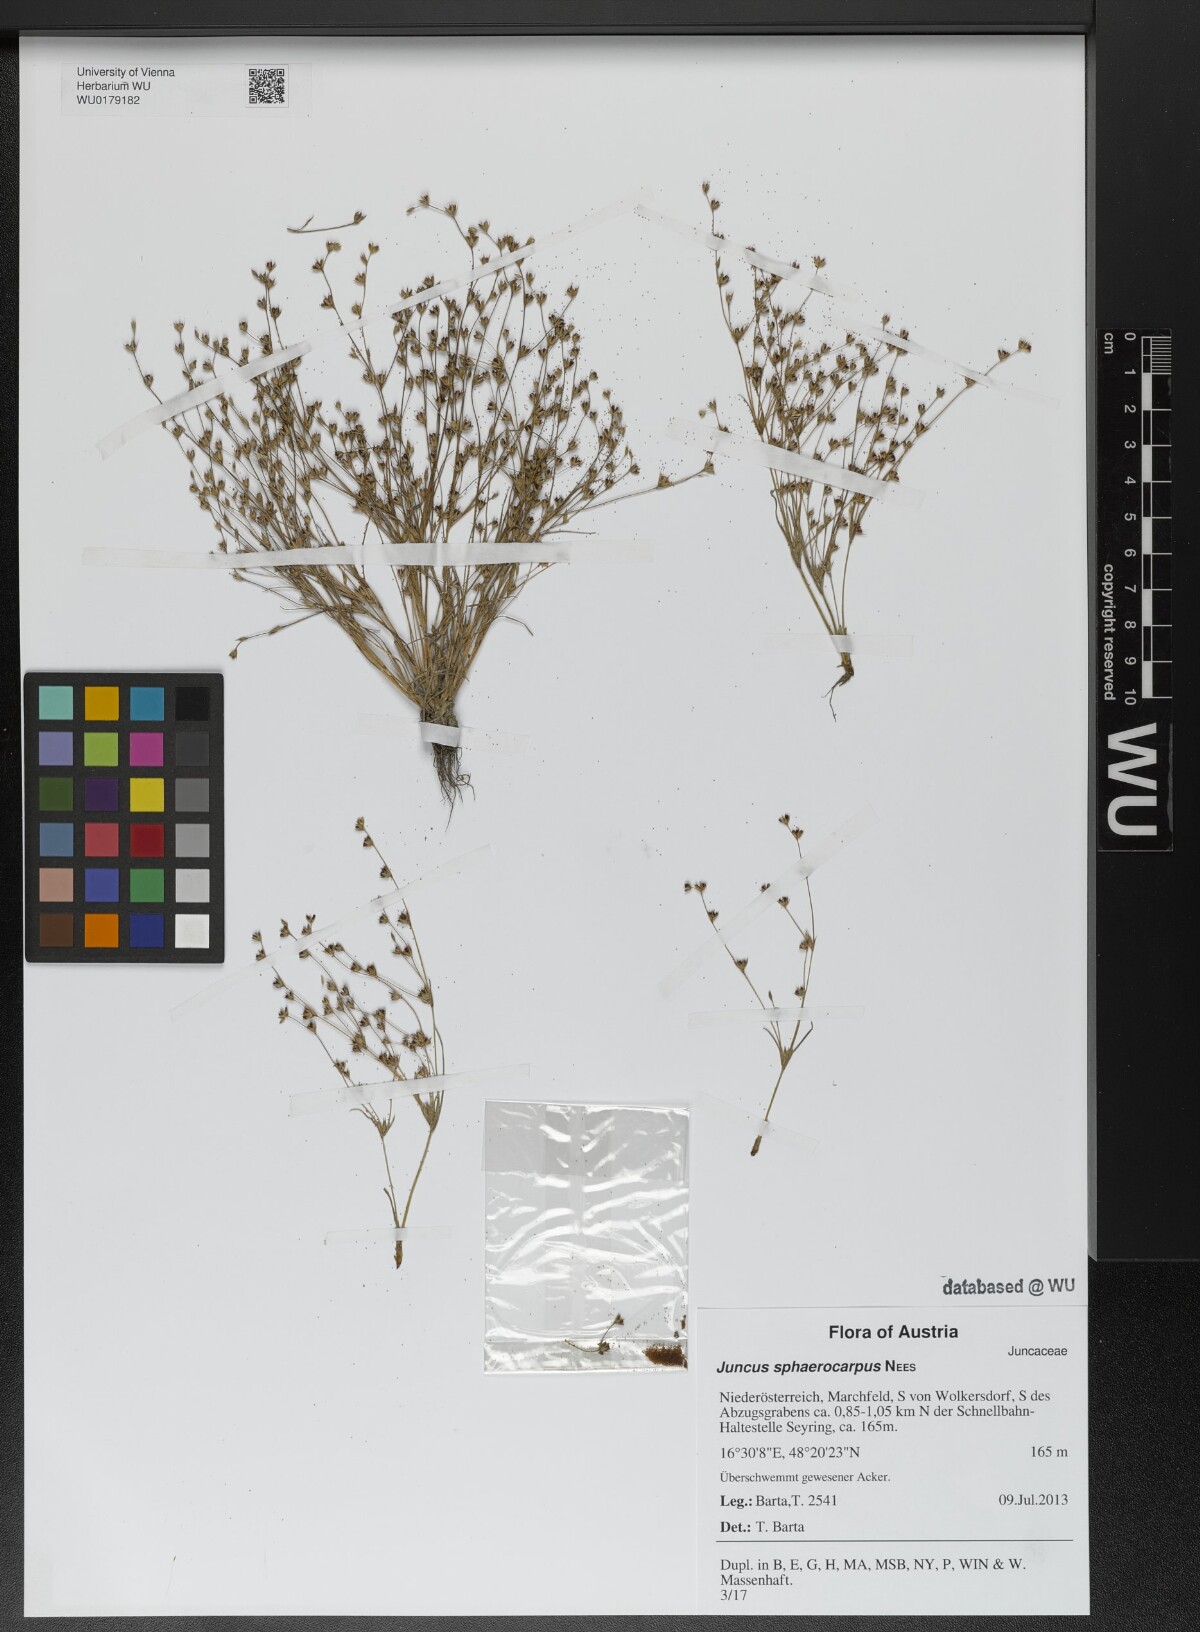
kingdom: Plantae
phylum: Tracheophyta
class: Liliopsida
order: Poales
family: Juncaceae
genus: Juncus
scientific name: Juncus sphaerocarpus
